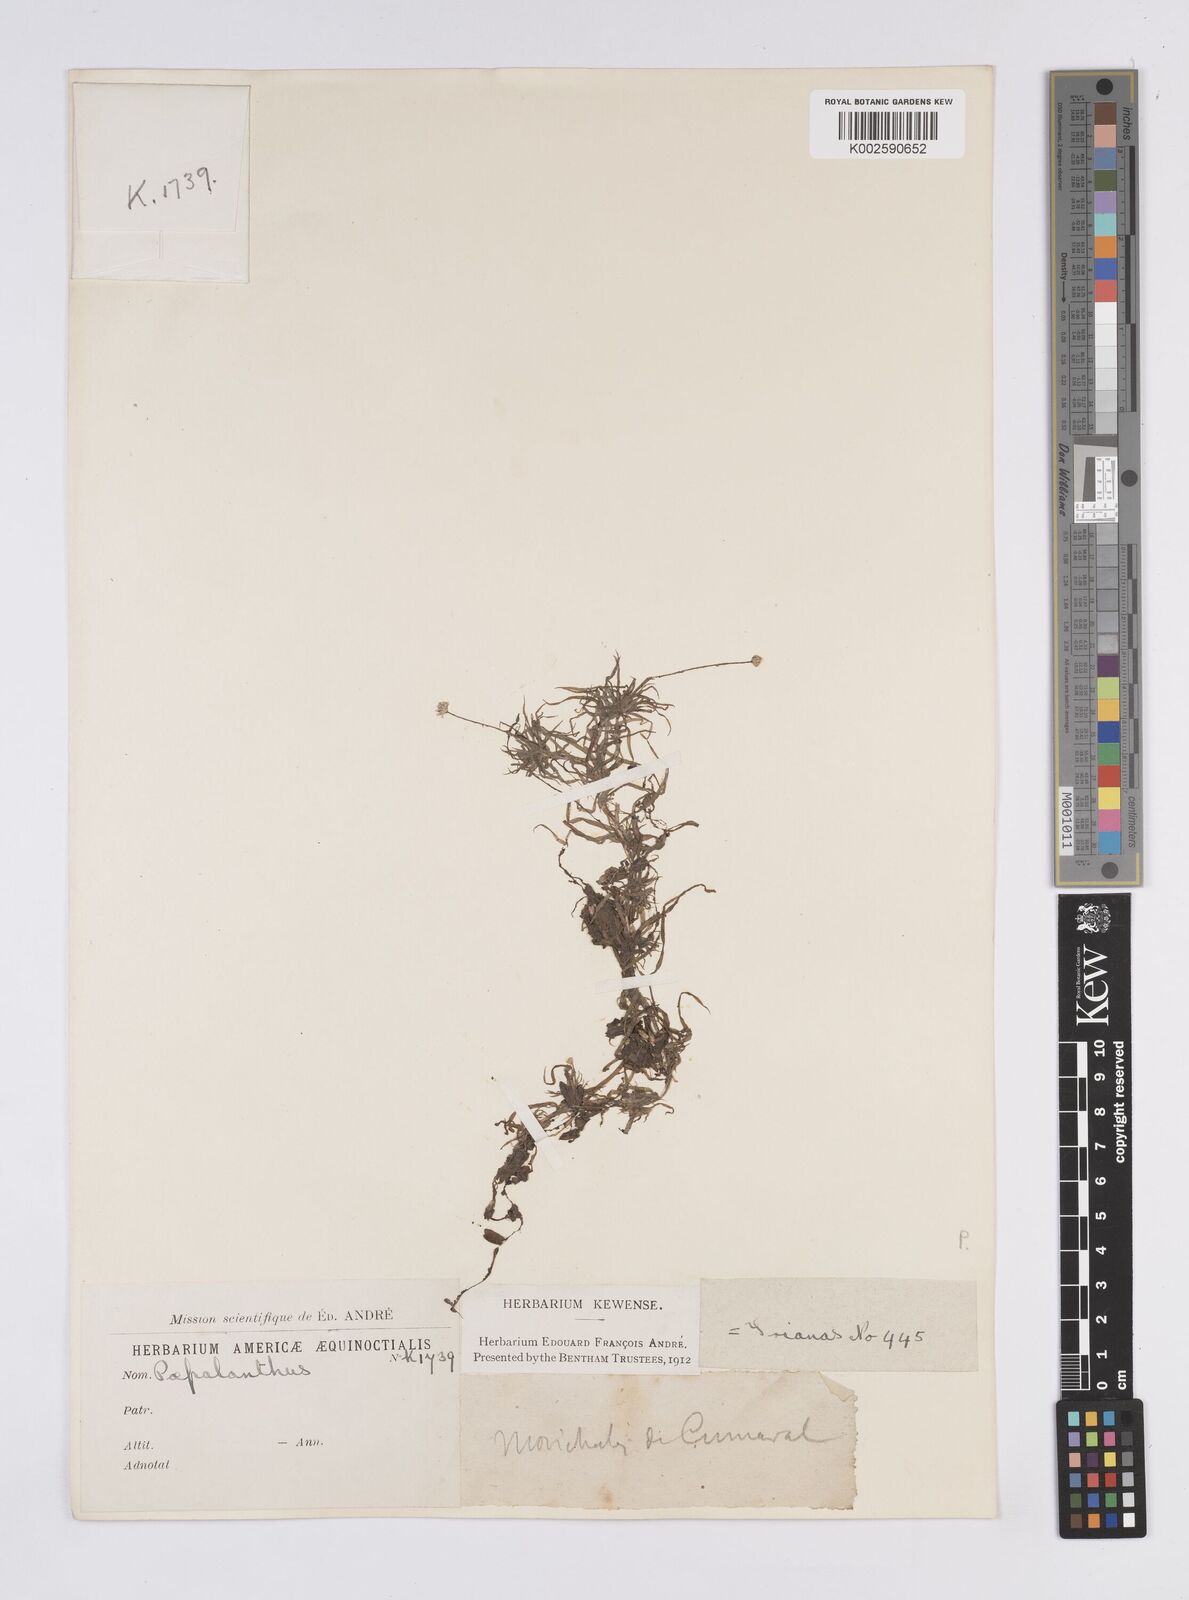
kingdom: Plantae
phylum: Tracheophyta
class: Liliopsida
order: Poales
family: Eriocaulaceae
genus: Syngonanthus
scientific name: Syngonanthus anomalus
